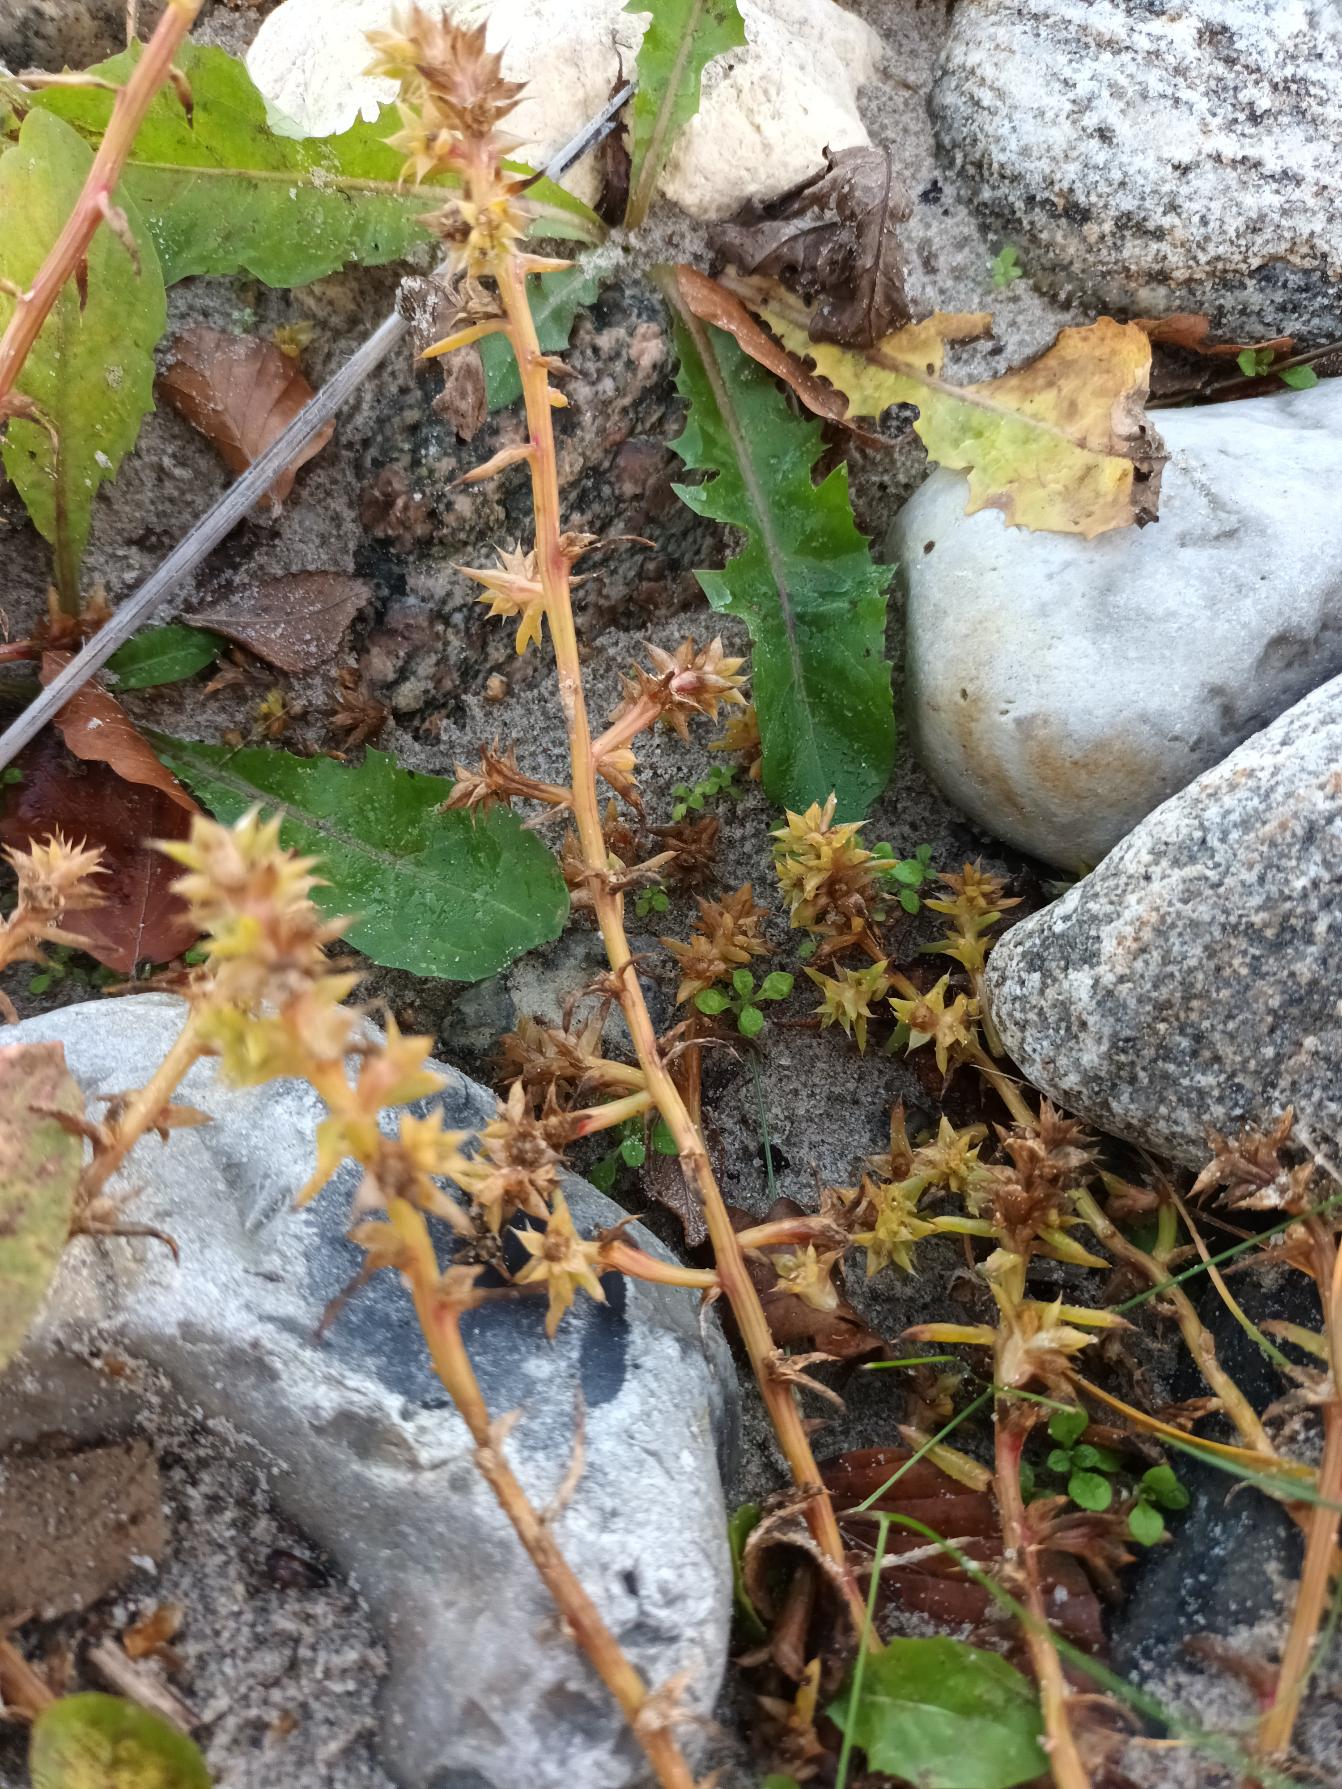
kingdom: Plantae
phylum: Tracheophyta
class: Magnoliopsida
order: Caryophyllales
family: Amaranthaceae
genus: Salsola
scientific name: Salsola kali
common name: Sodaurt
